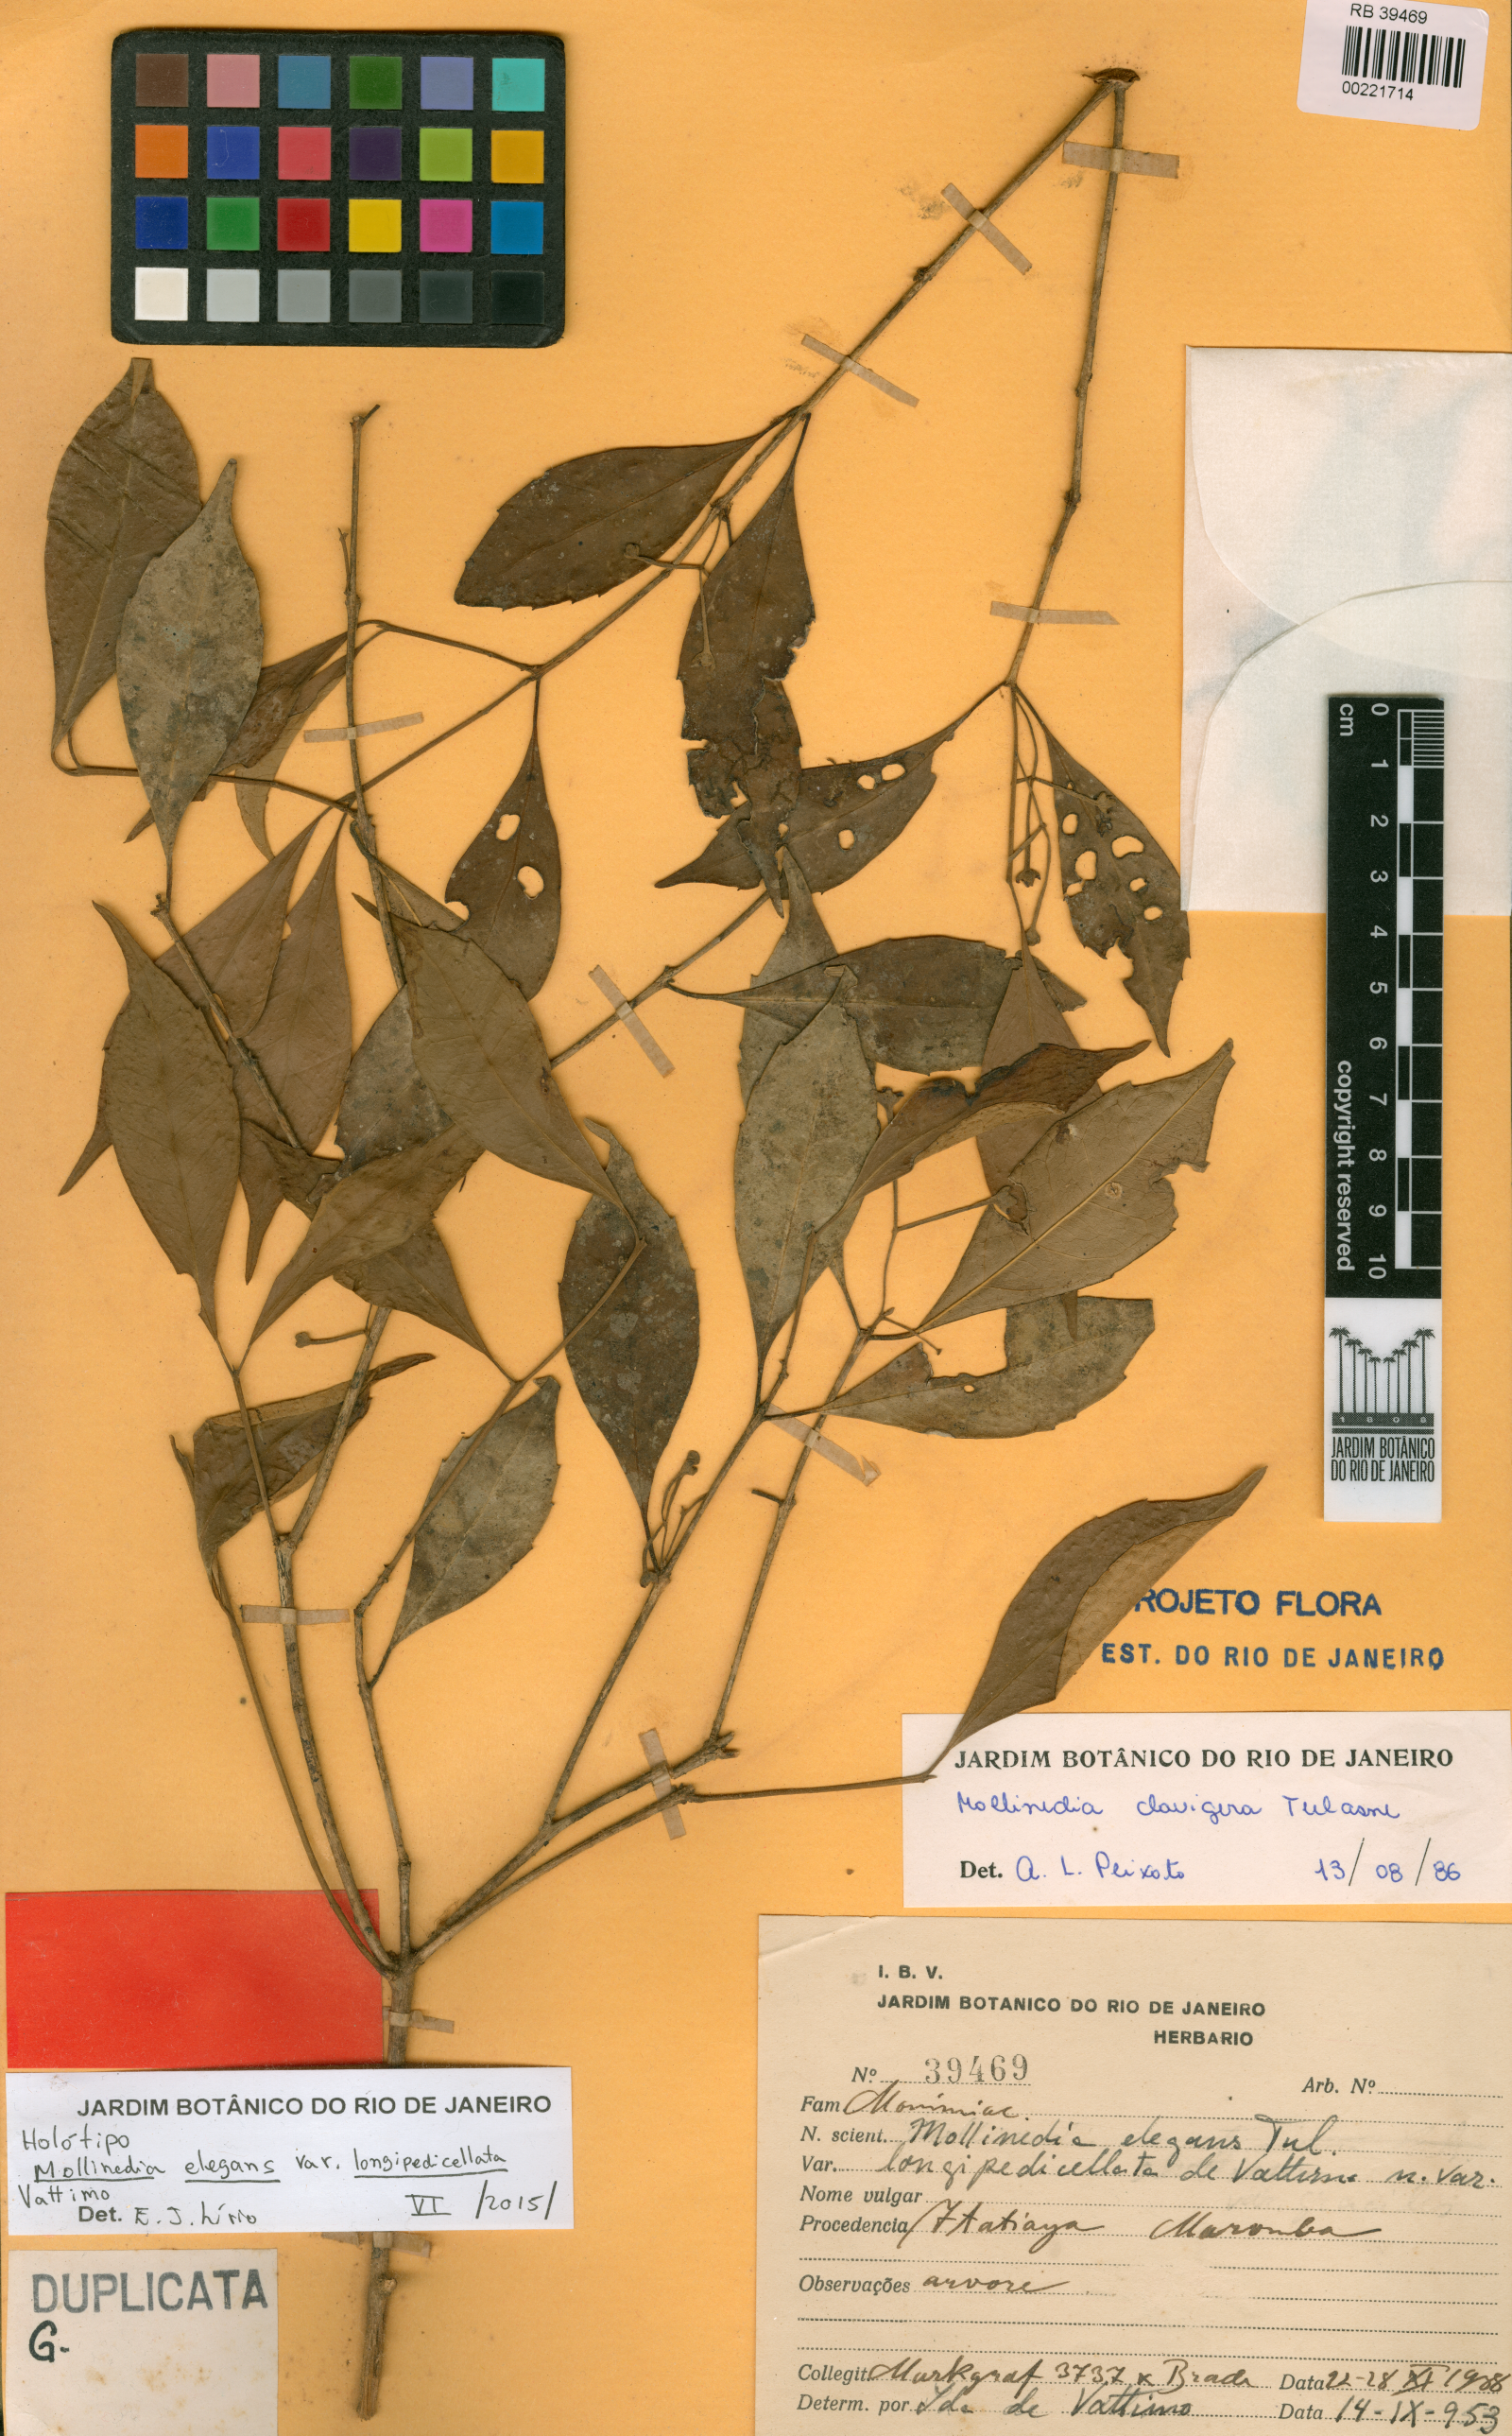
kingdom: Plantae
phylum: Tracheophyta
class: Magnoliopsida
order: Laurales
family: Monimiaceae
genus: Mollinedia
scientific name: Mollinedia clavigera
